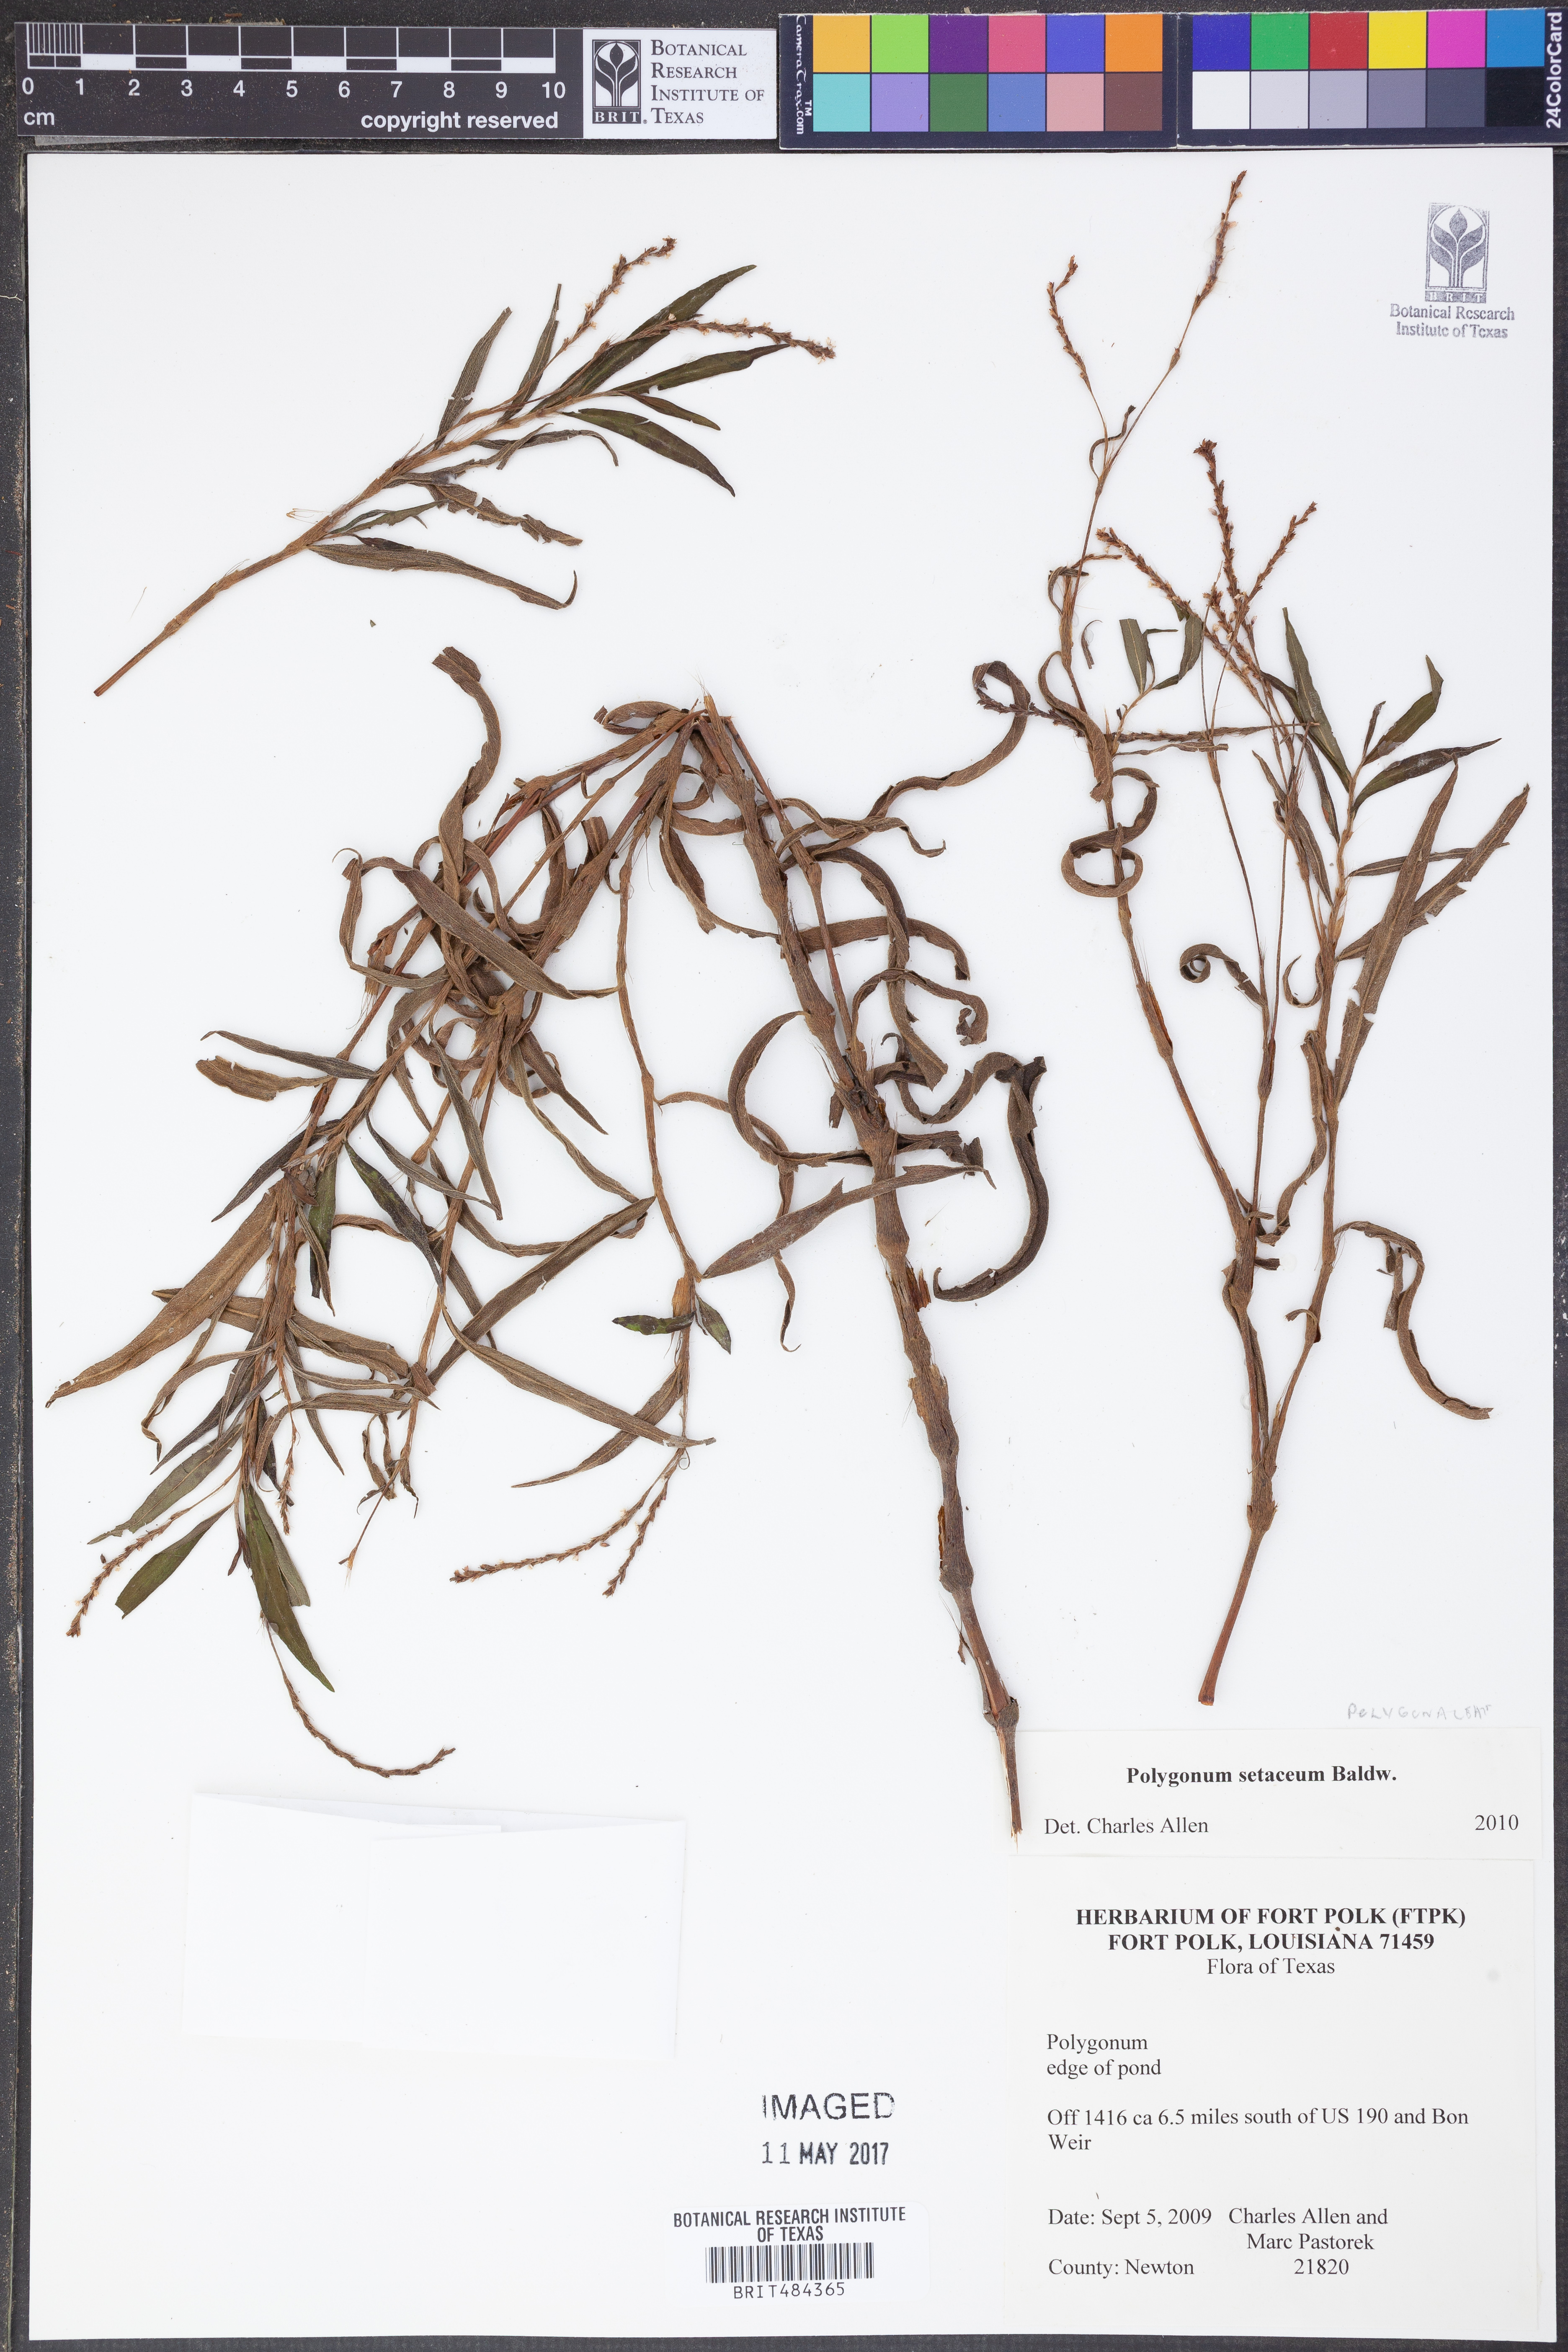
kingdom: Plantae
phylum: Tracheophyta
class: Magnoliopsida
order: Caryophyllales
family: Polygonaceae
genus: Persicaria
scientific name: Persicaria setacea
